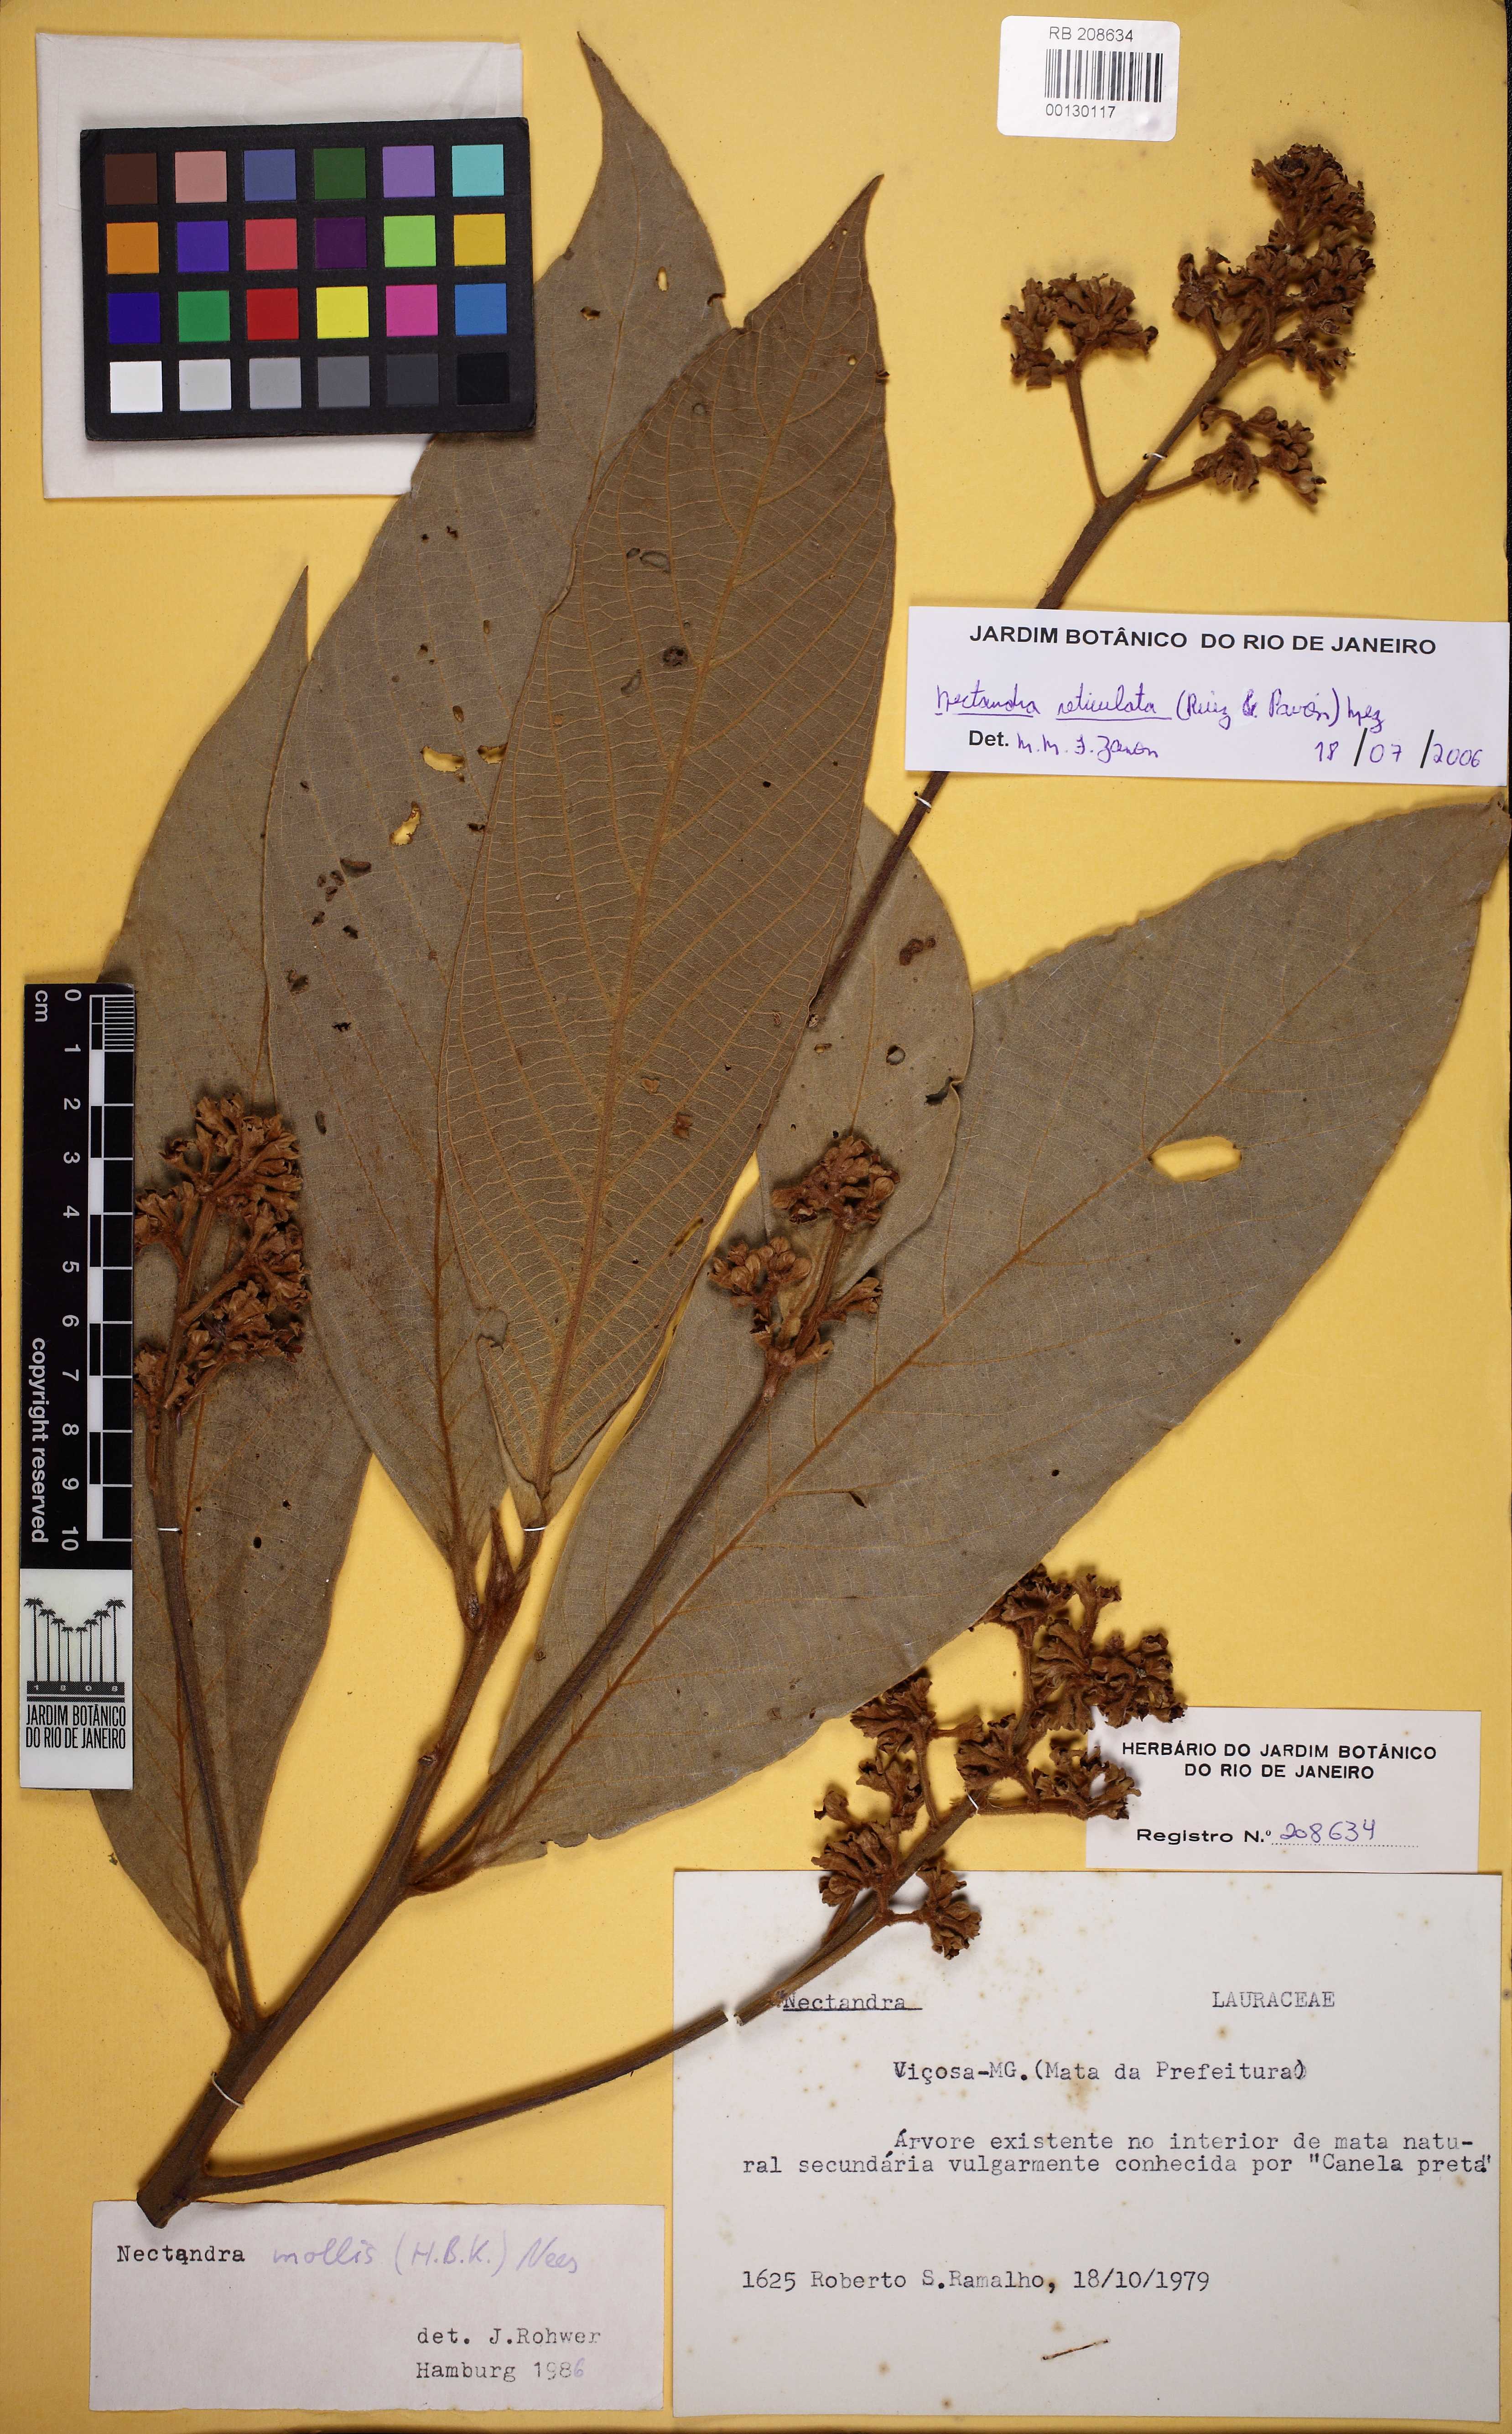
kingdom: Plantae
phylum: Tracheophyta
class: Magnoliopsida
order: Laurales
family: Lauraceae
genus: Nectandra
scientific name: Nectandra villosa
